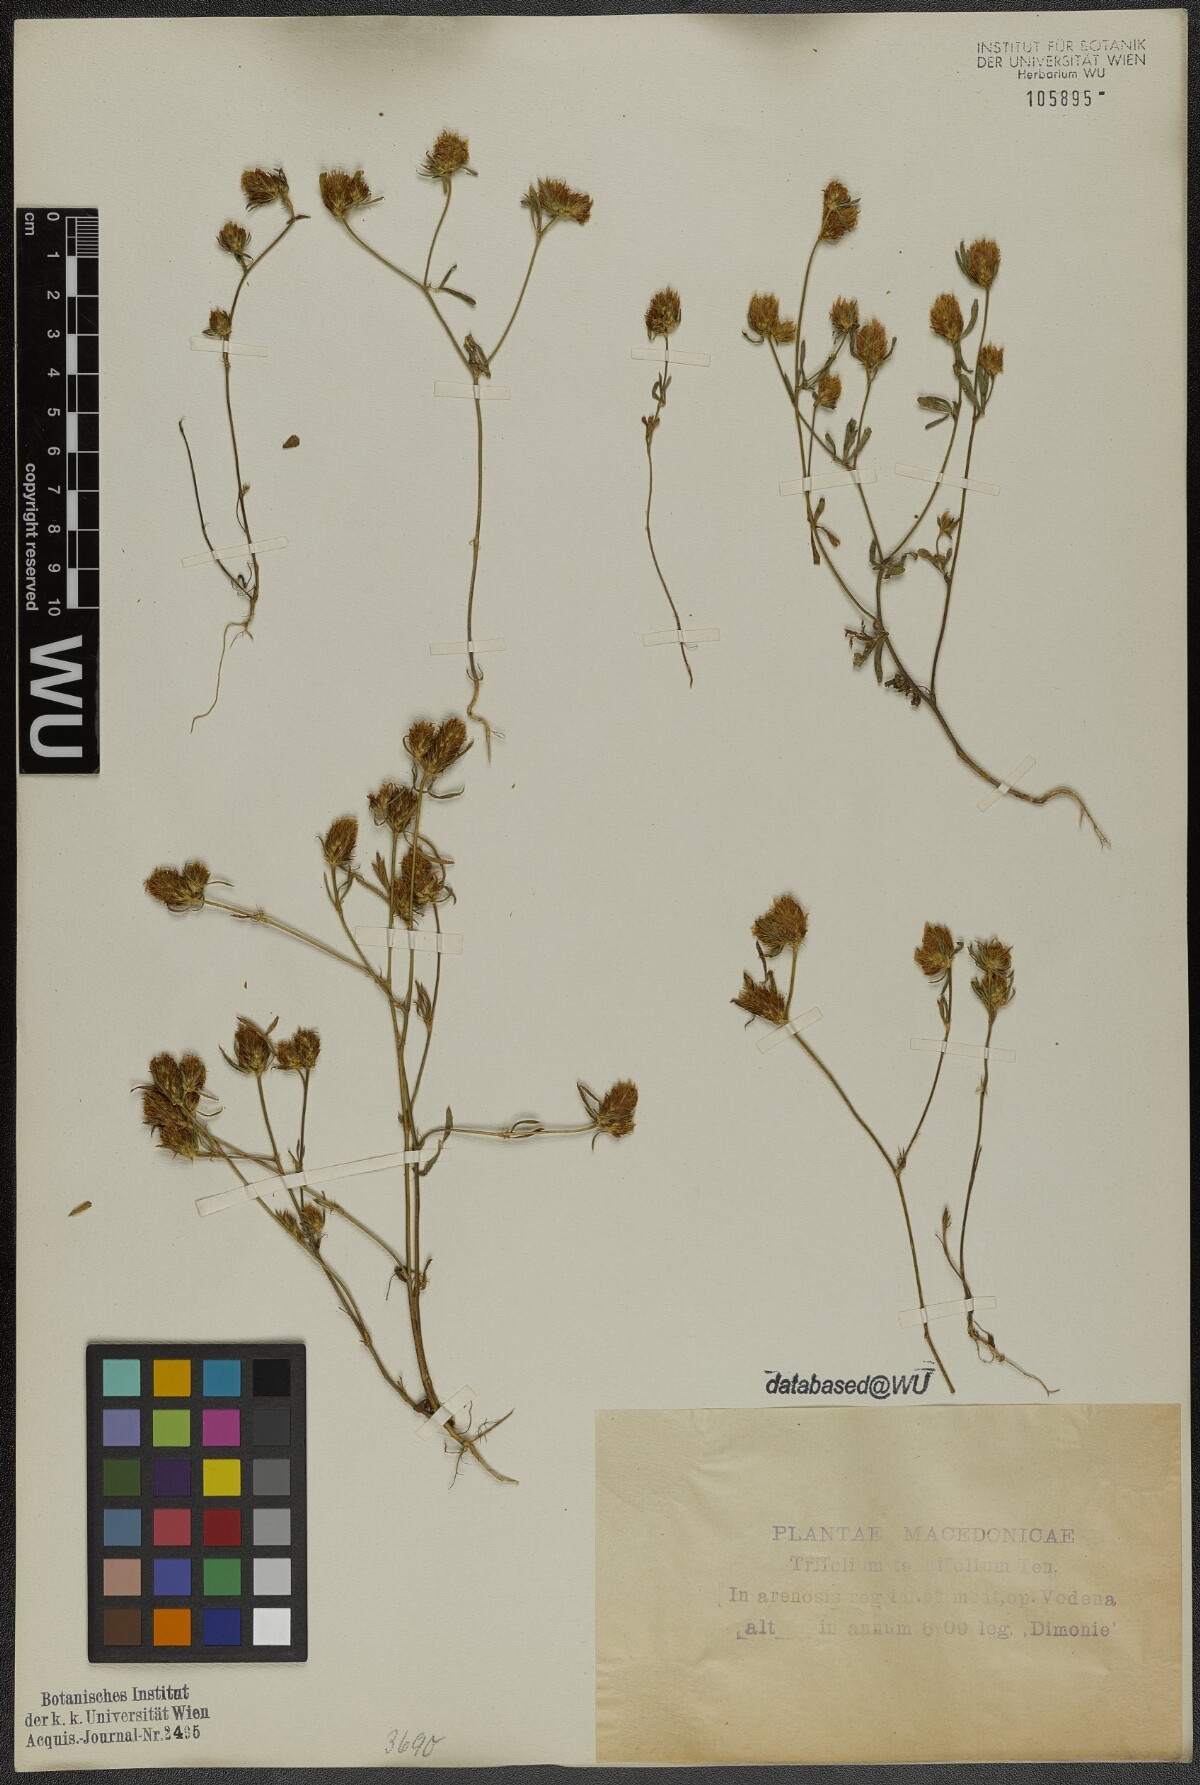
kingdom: Plantae
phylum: Tracheophyta
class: Magnoliopsida
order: Fabales
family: Fabaceae
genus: Trifolium
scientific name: Trifolium tenuifolium
